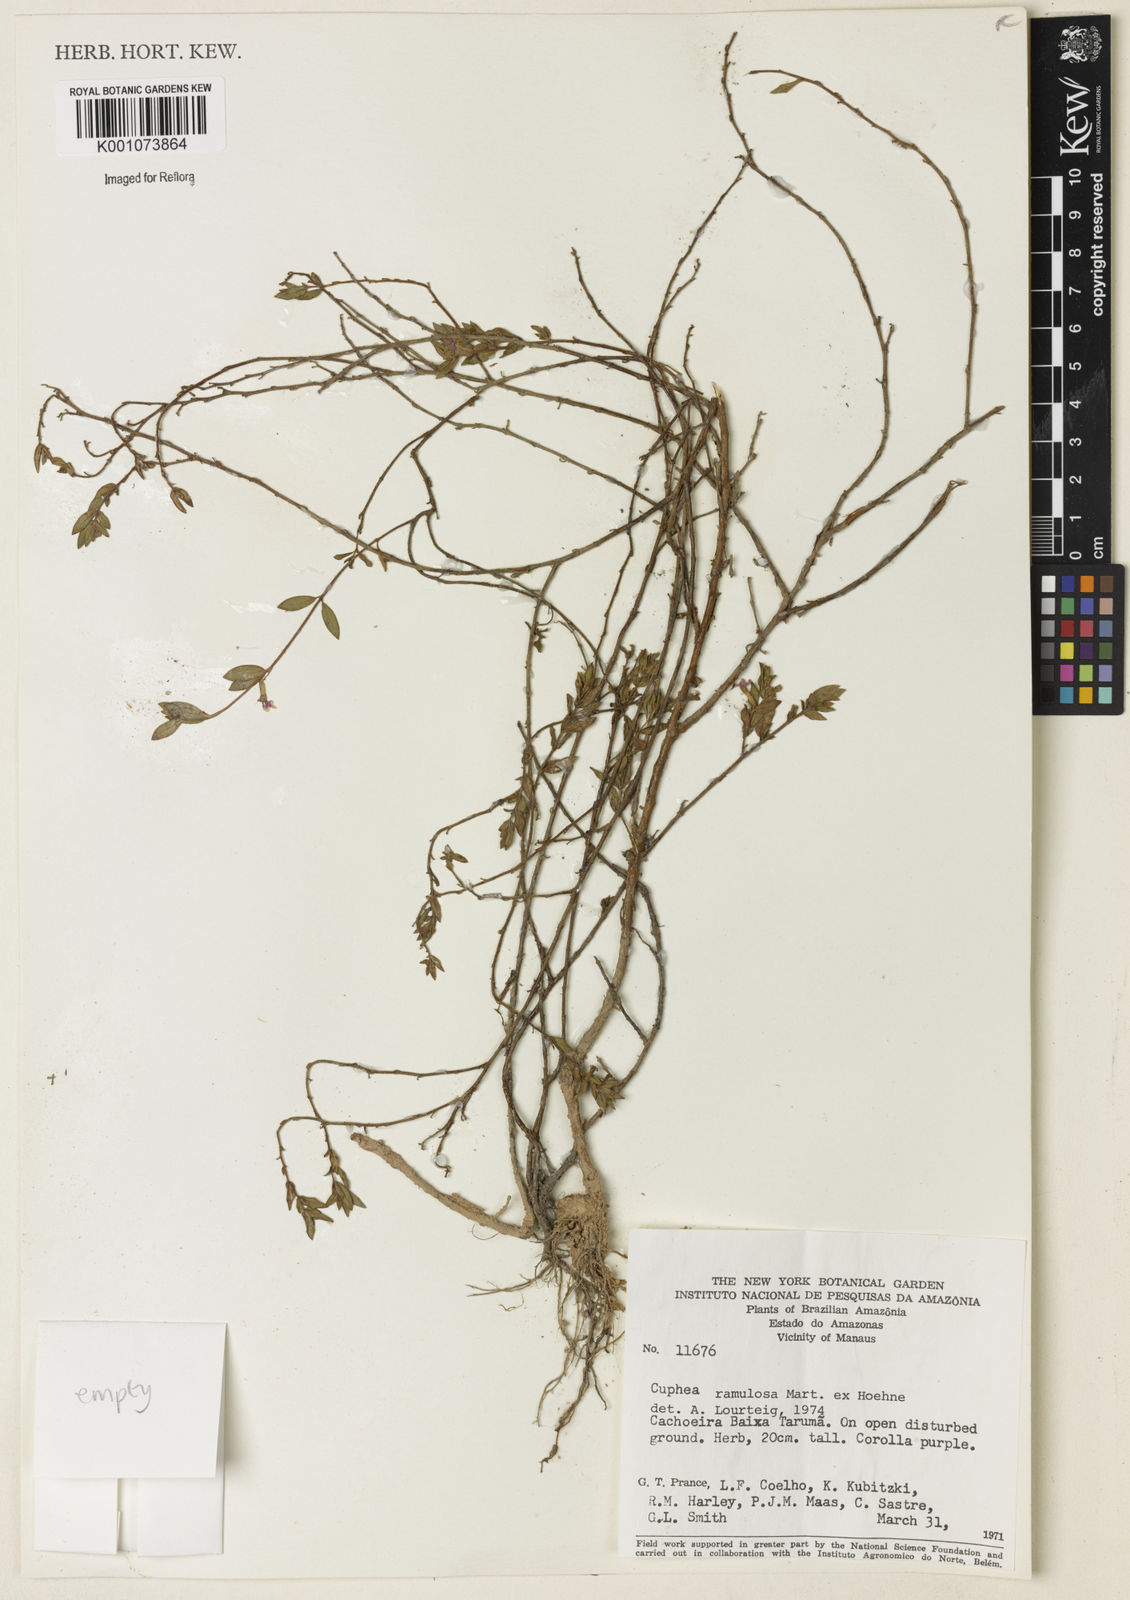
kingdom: Plantae
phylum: Tracheophyta
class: Magnoliopsida
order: Myrtales
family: Lythraceae
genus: Cuphea
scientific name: Cuphea antisyphilitica
